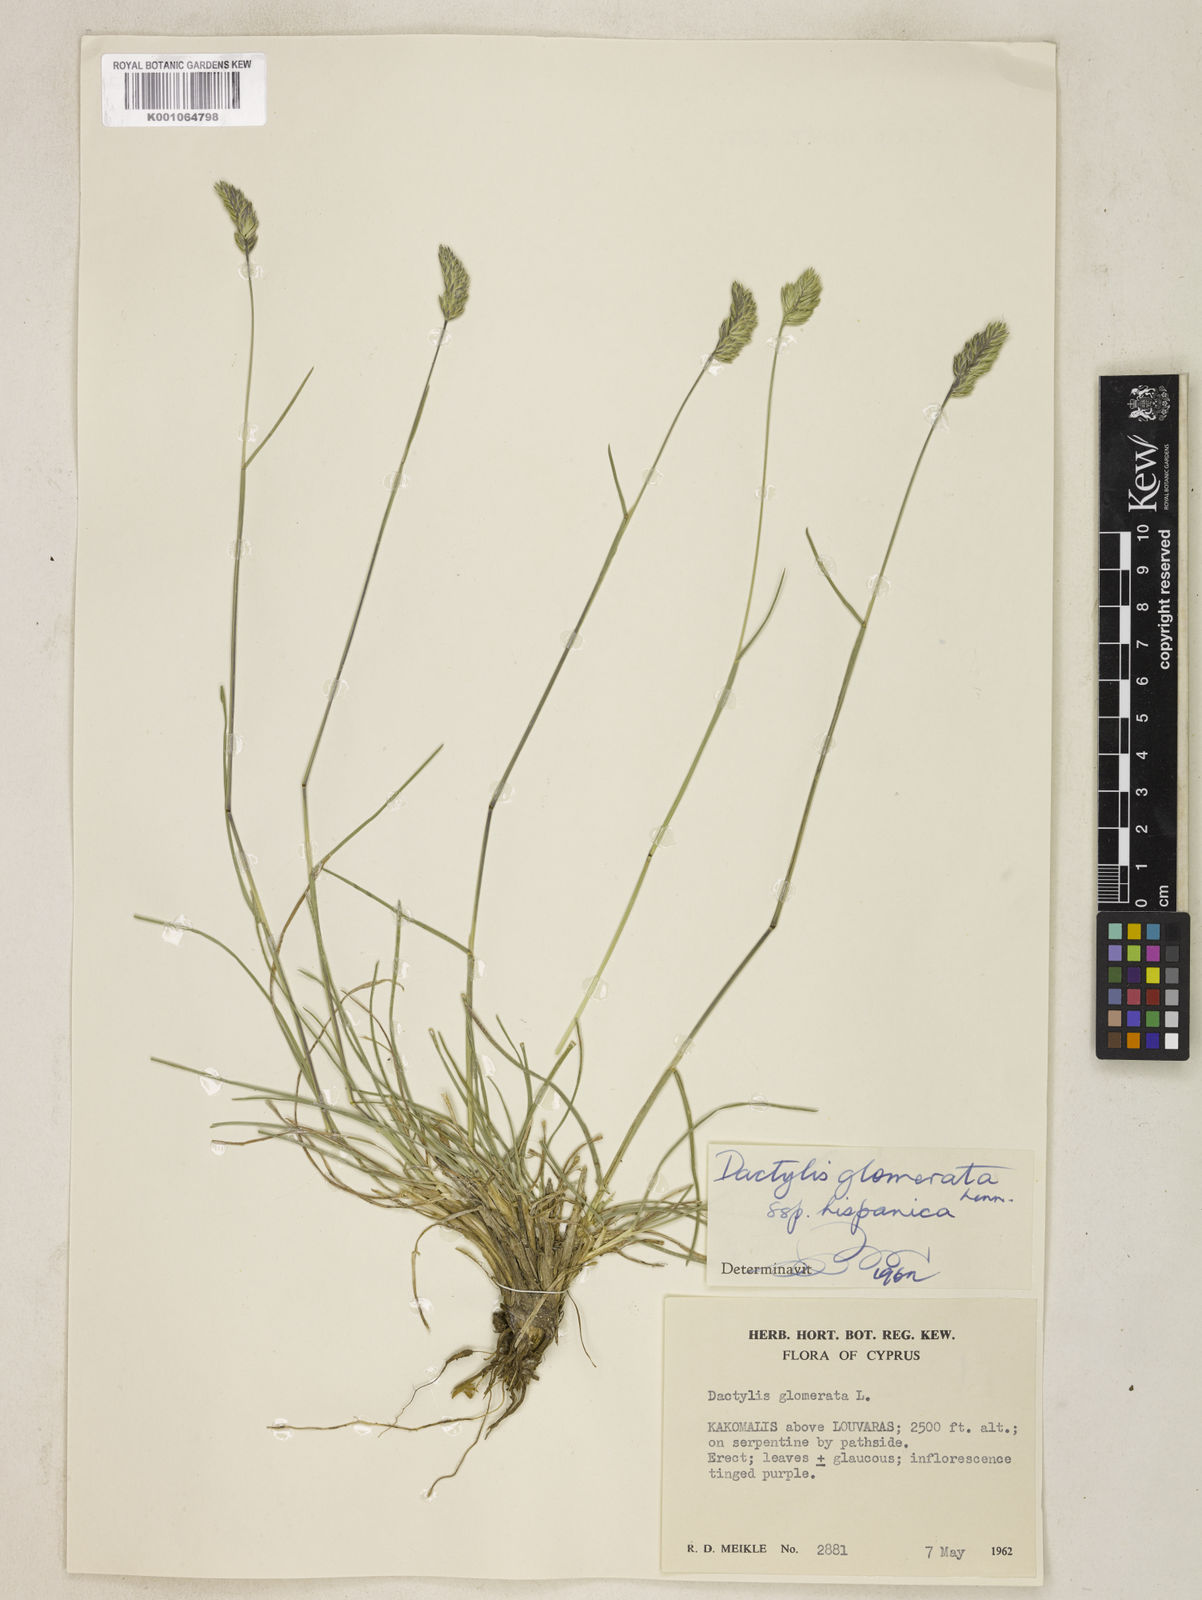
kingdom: Plantae
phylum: Tracheophyta
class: Liliopsida
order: Poales
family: Poaceae
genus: Dactylis
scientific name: Dactylis glomerata
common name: Orchardgrass
